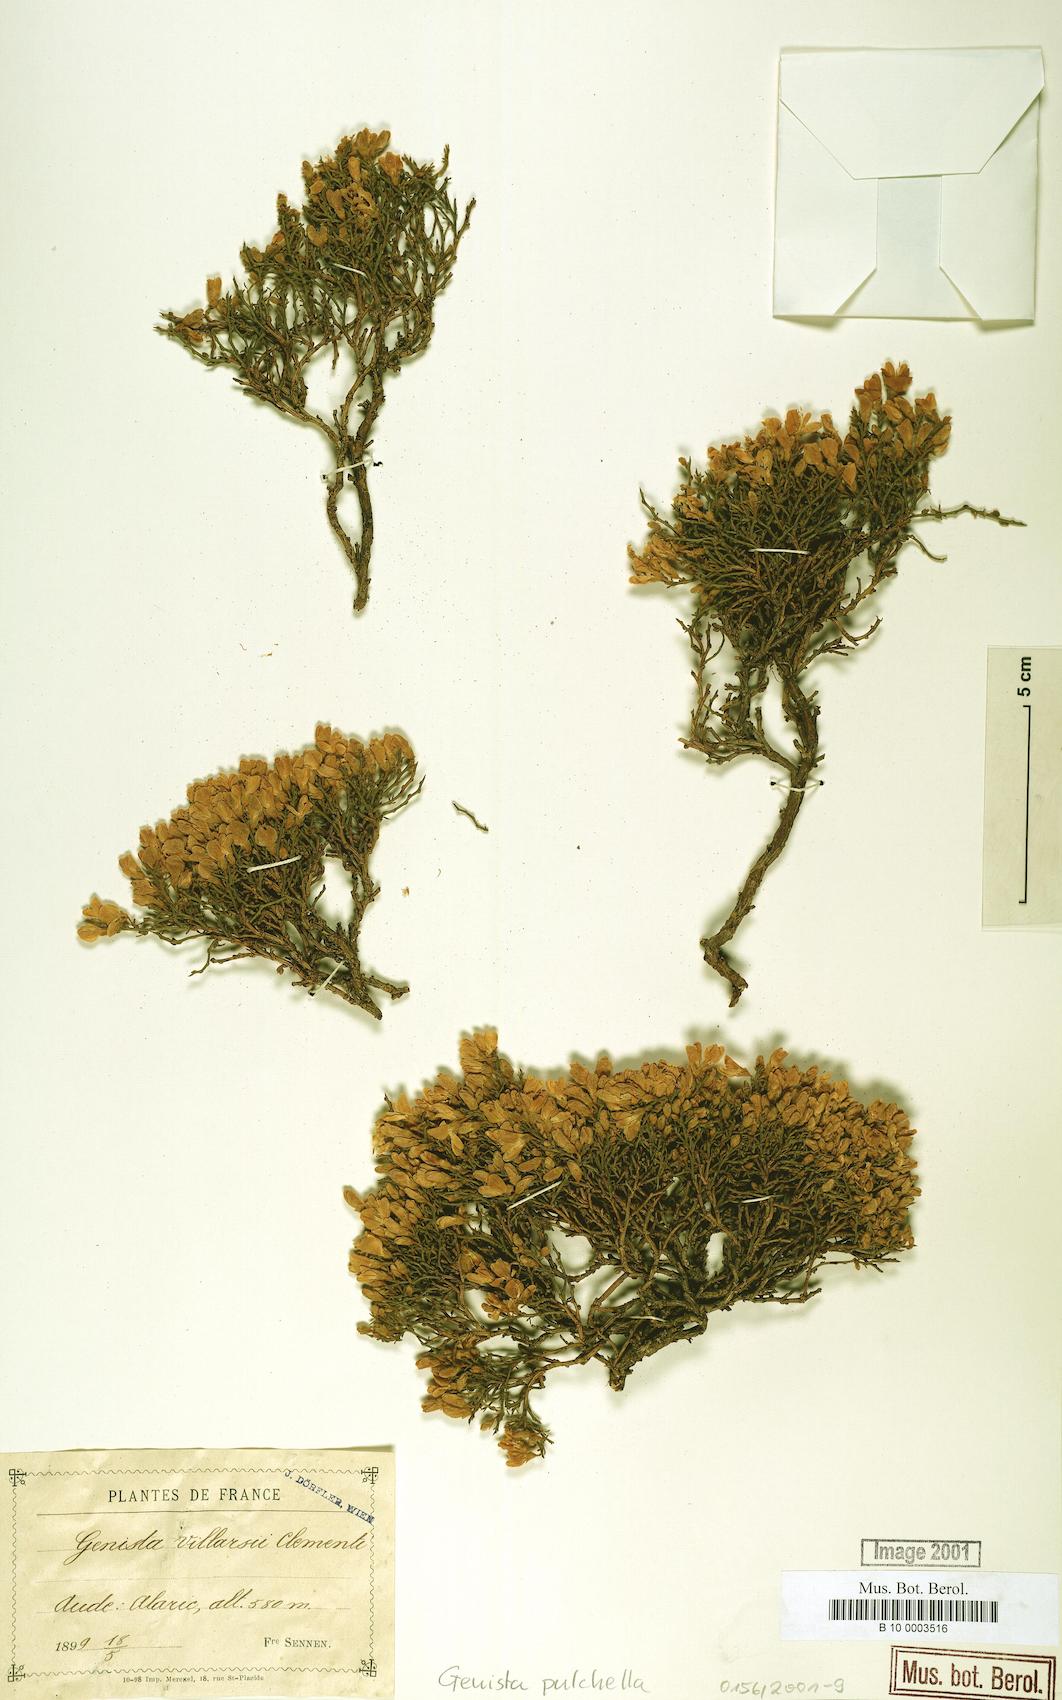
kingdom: Plantae
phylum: Tracheophyta
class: Magnoliopsida
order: Fabales
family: Fabaceae
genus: Genista
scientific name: Genista pulchella
